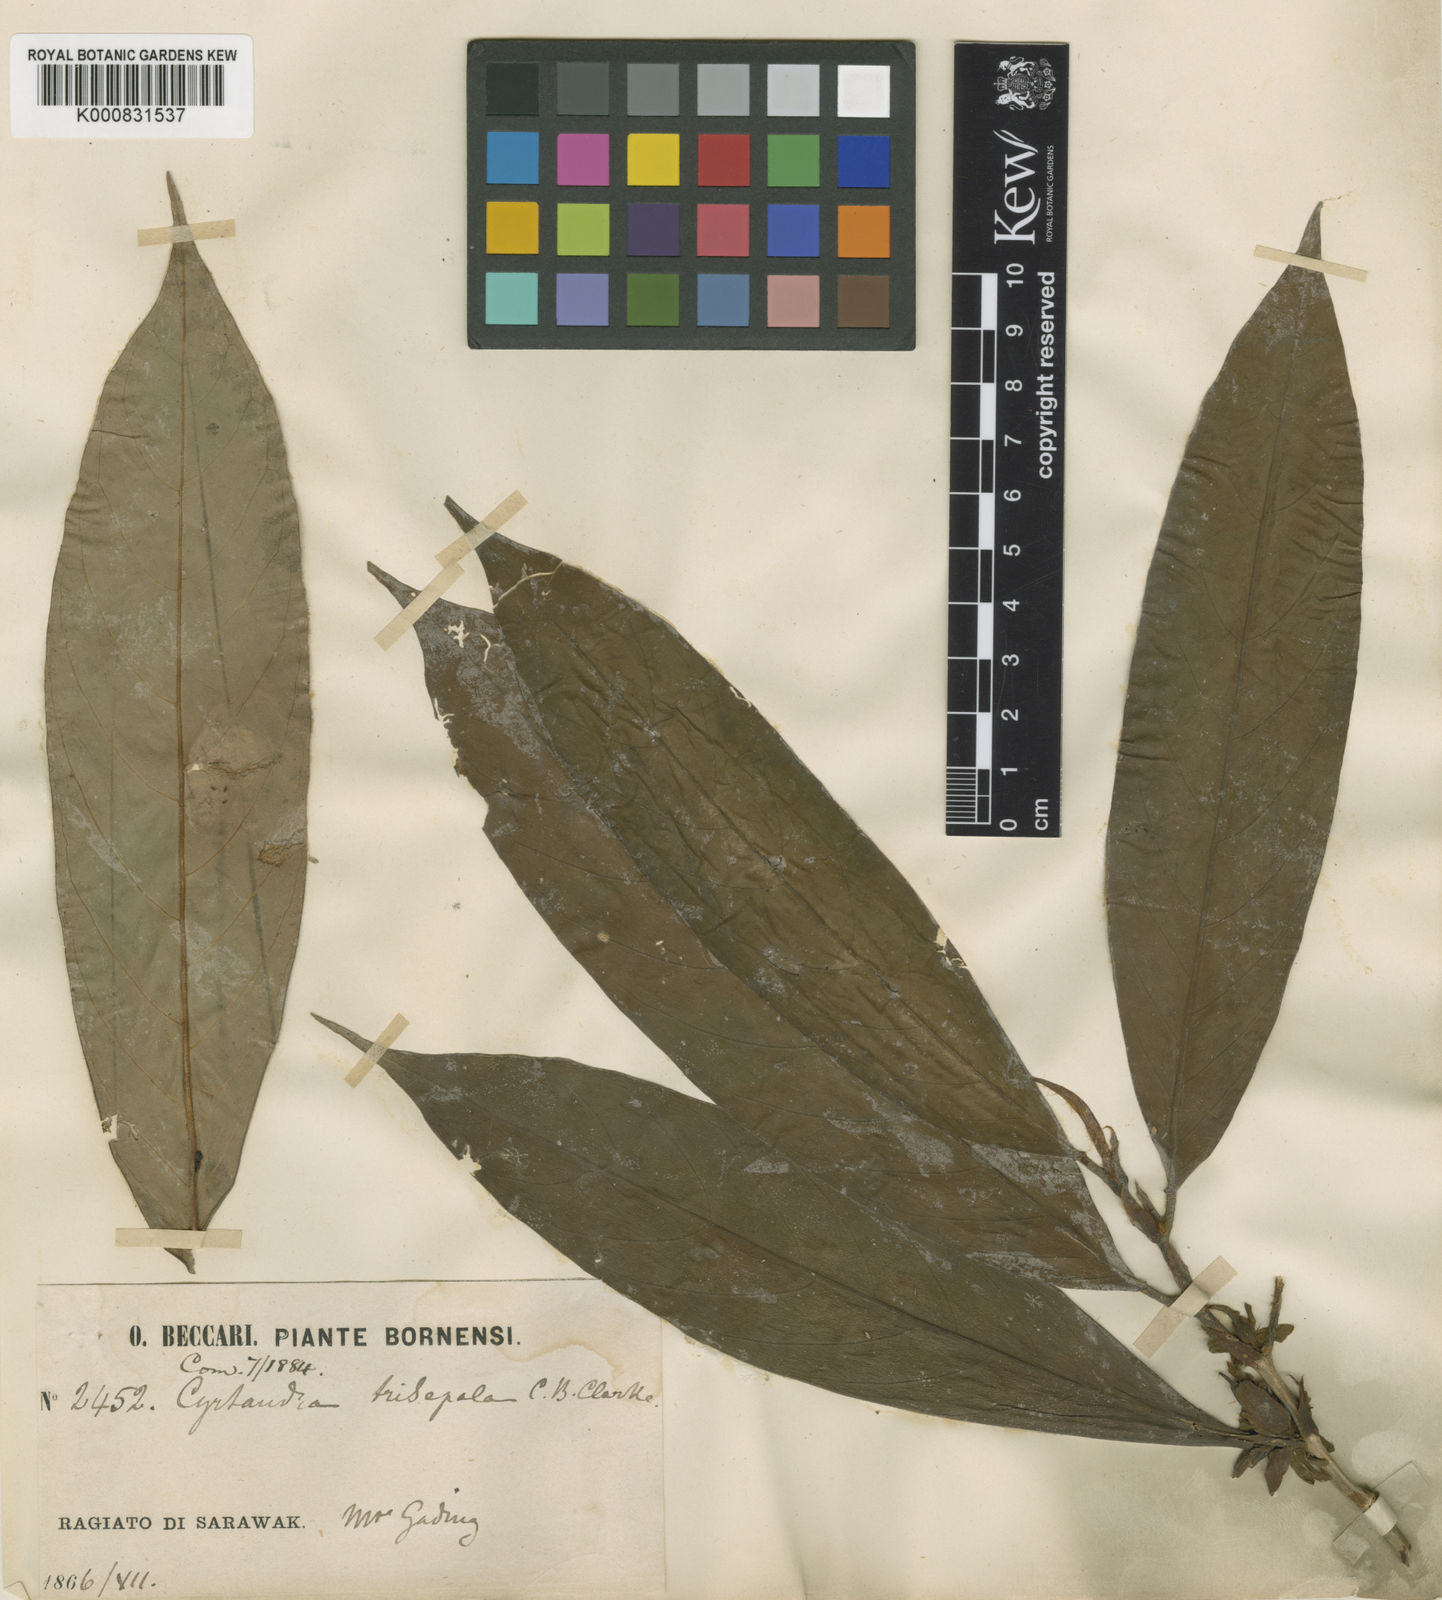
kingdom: Plantae
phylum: Tracheophyta
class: Magnoliopsida
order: Lamiales
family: Gesneriaceae
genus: Cyrtandra
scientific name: Cyrtandra trisepala
